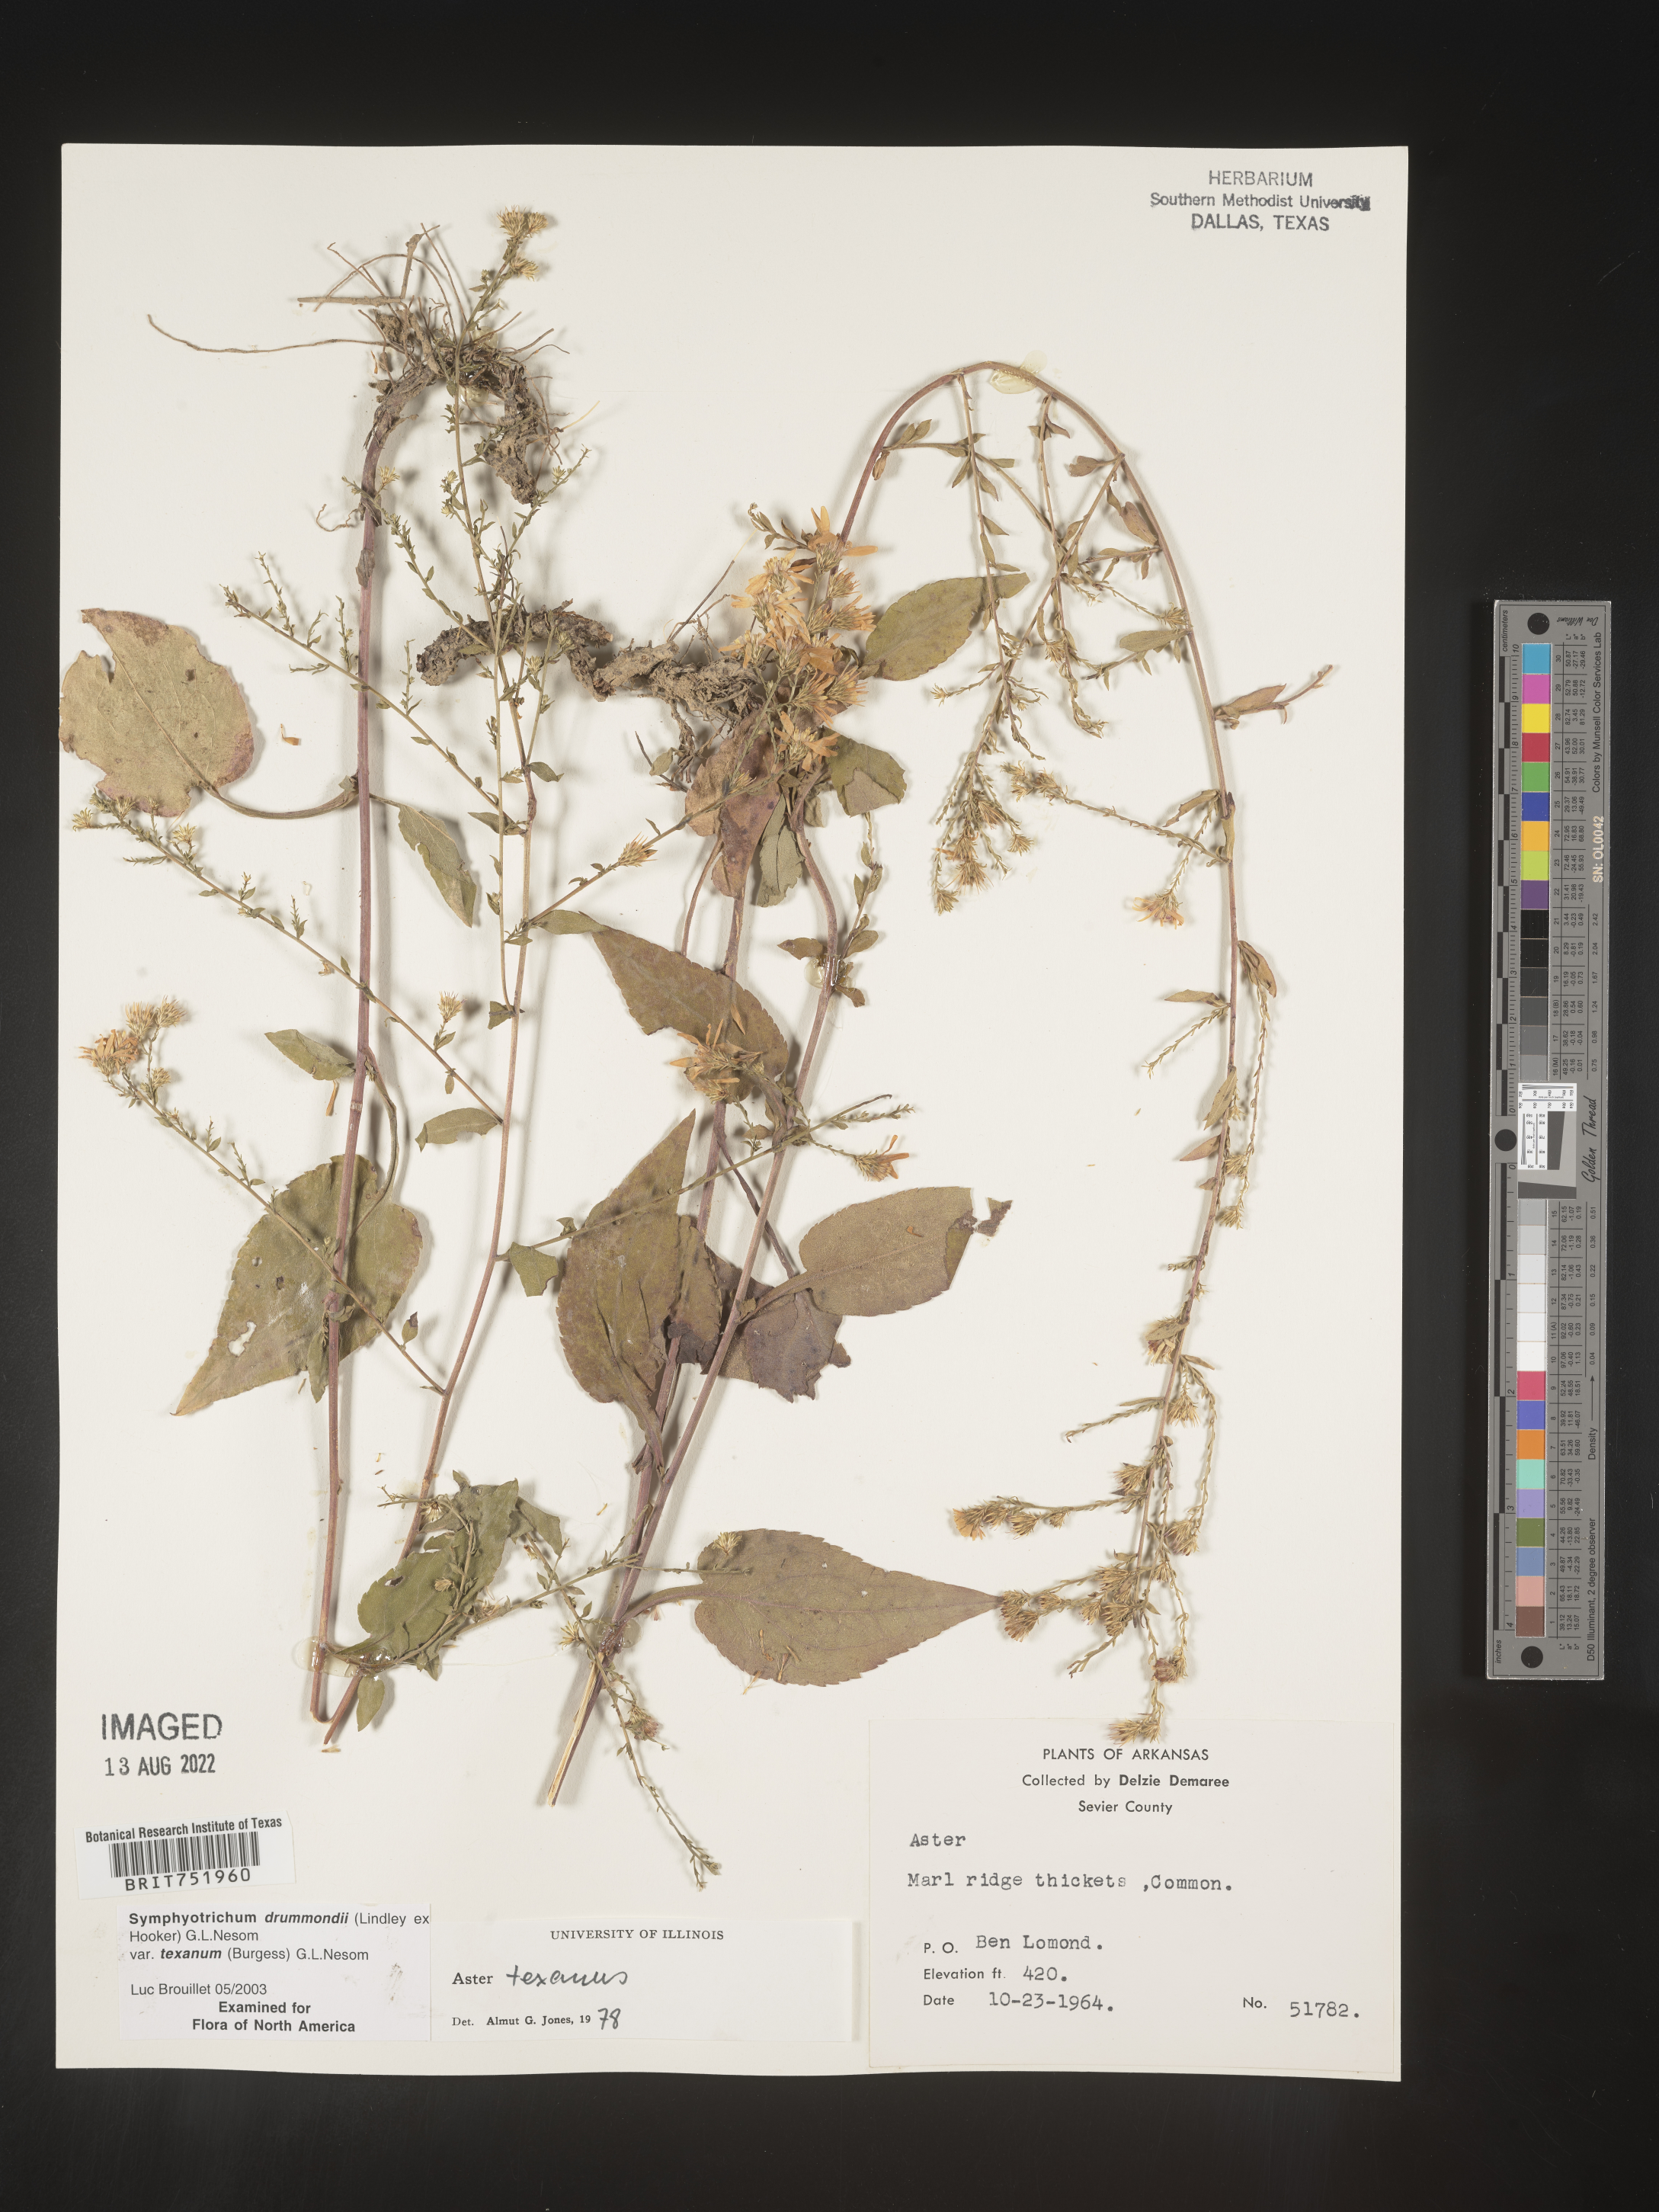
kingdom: Plantae
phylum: Tracheophyta
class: Magnoliopsida
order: Asterales
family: Asteraceae
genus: Symphyotrichum
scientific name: Symphyotrichum drummondii
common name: Drummond's aster
